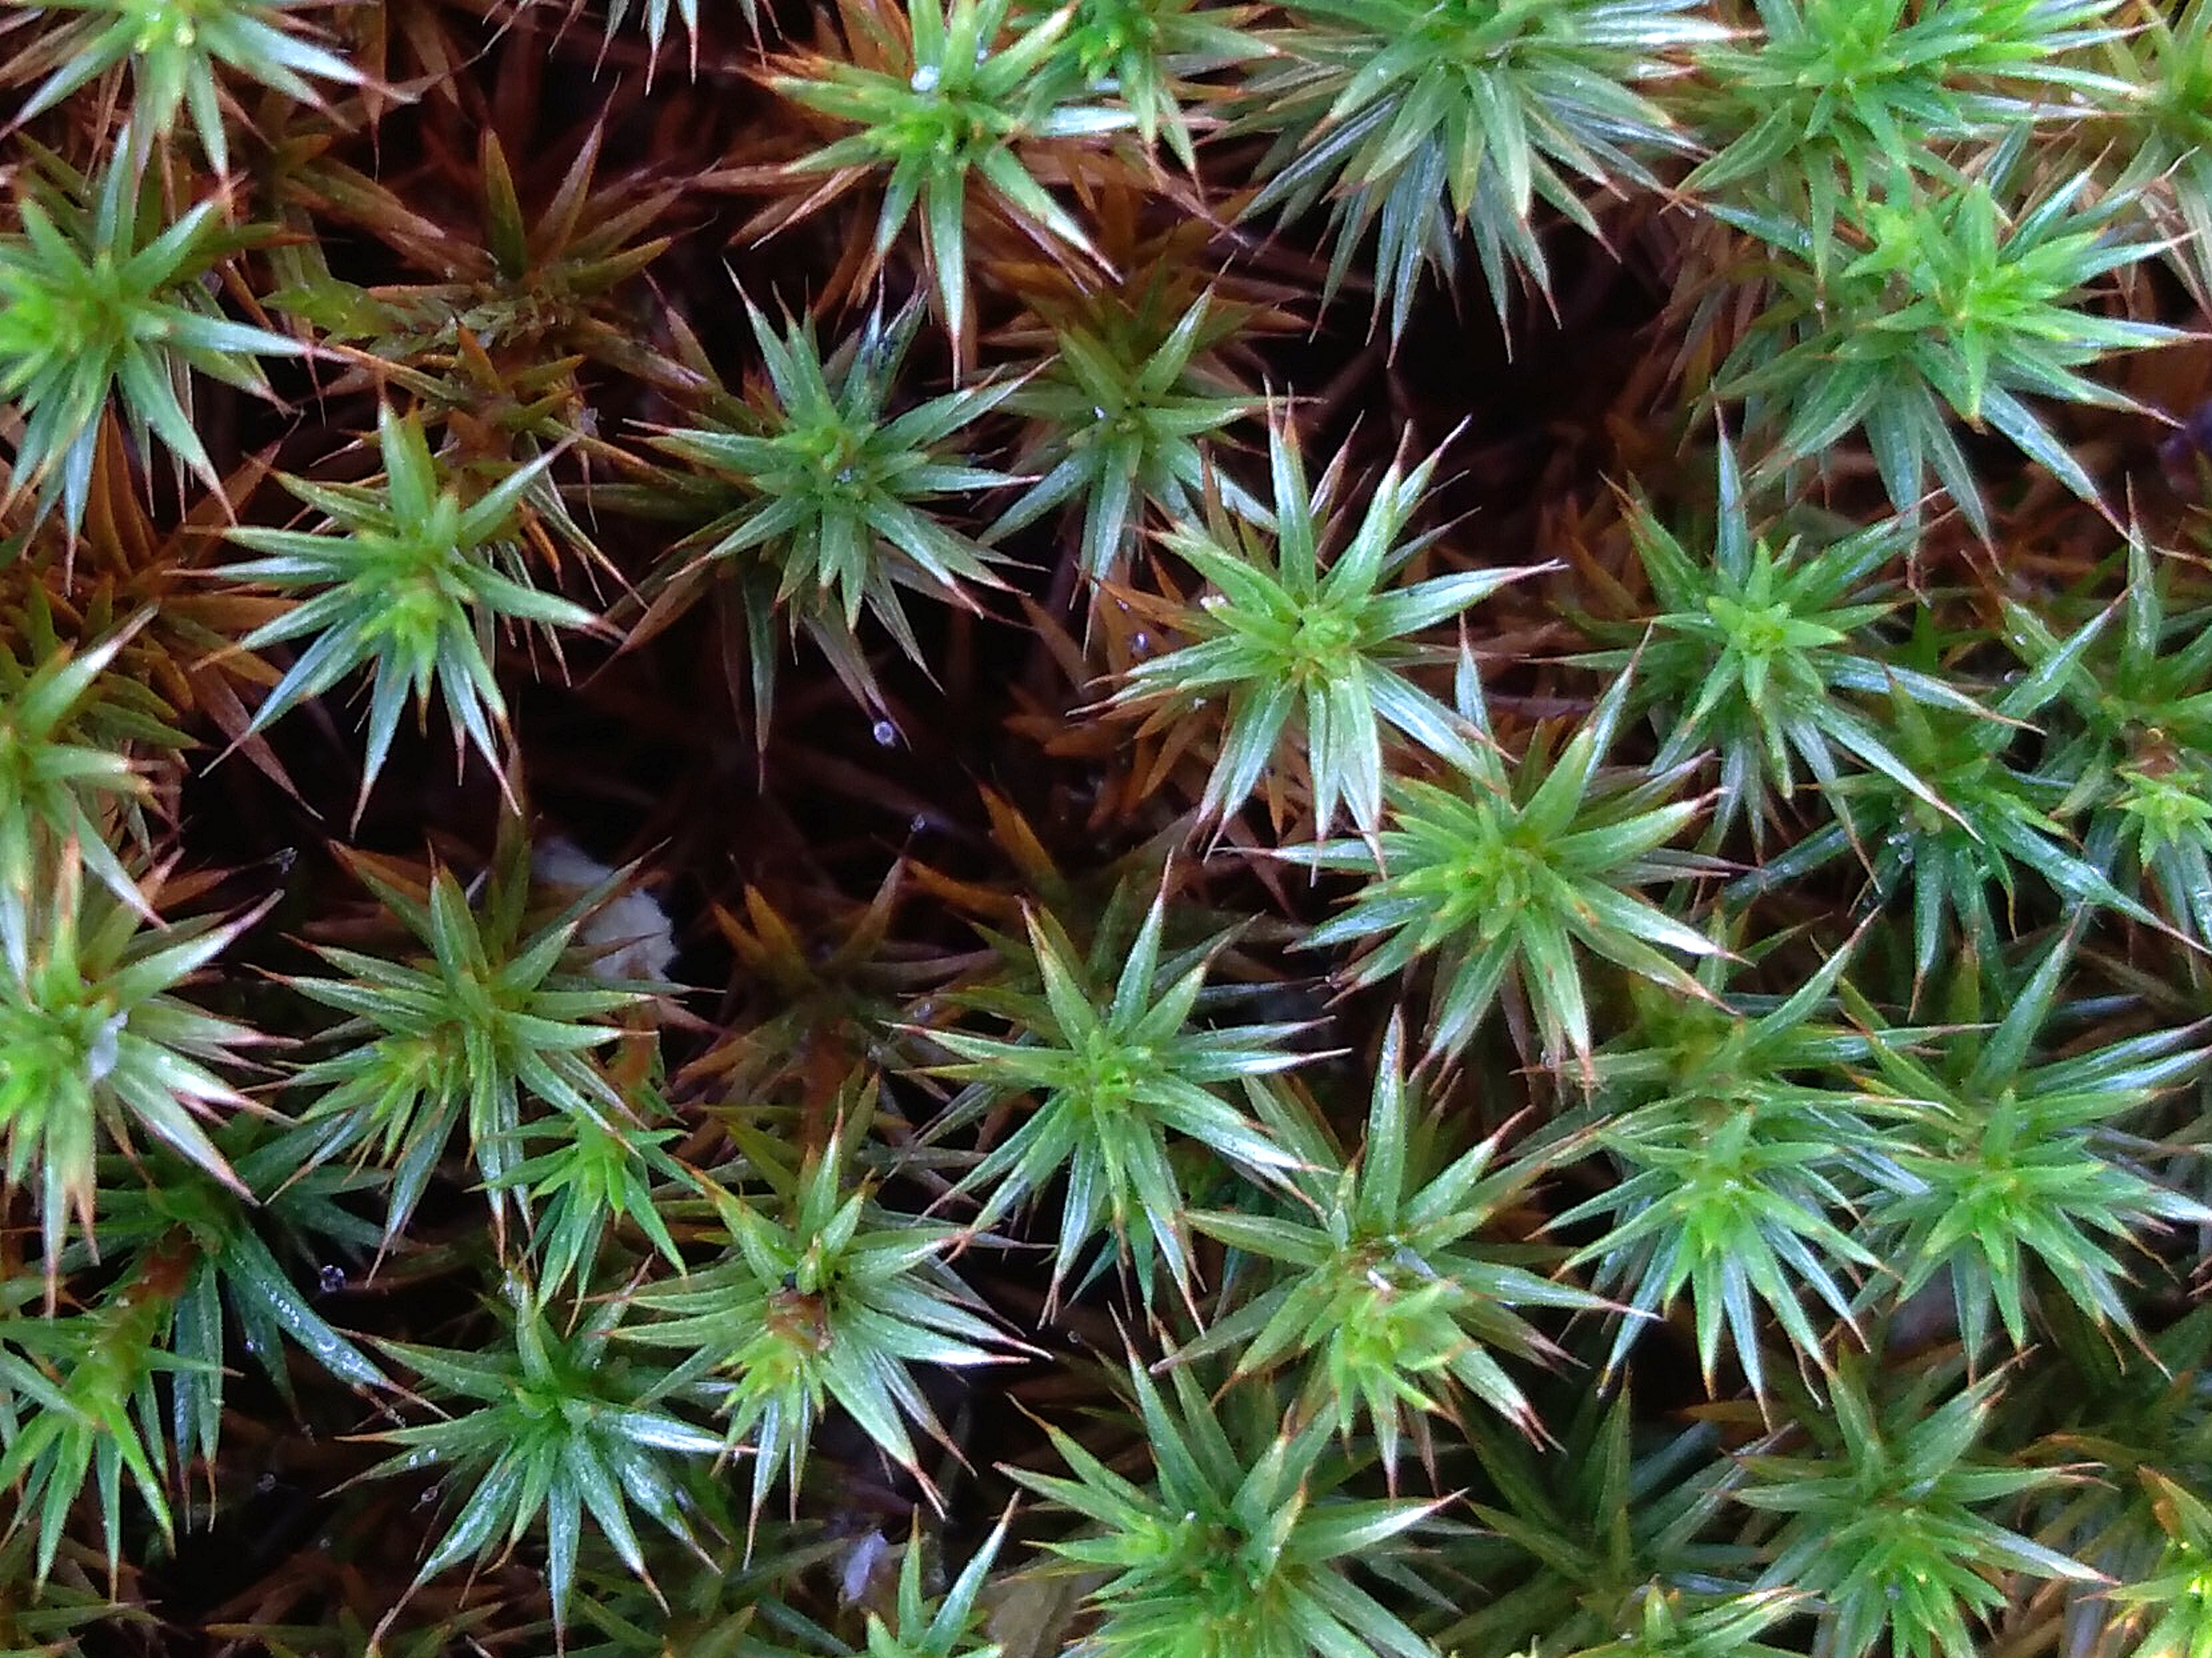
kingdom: Plantae
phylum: Bryophyta
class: Polytrichopsida
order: Polytrichales
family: Polytrichaceae
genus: Polytrichum
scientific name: Polytrichum strictum
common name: Filtstænglet jomfruhår
